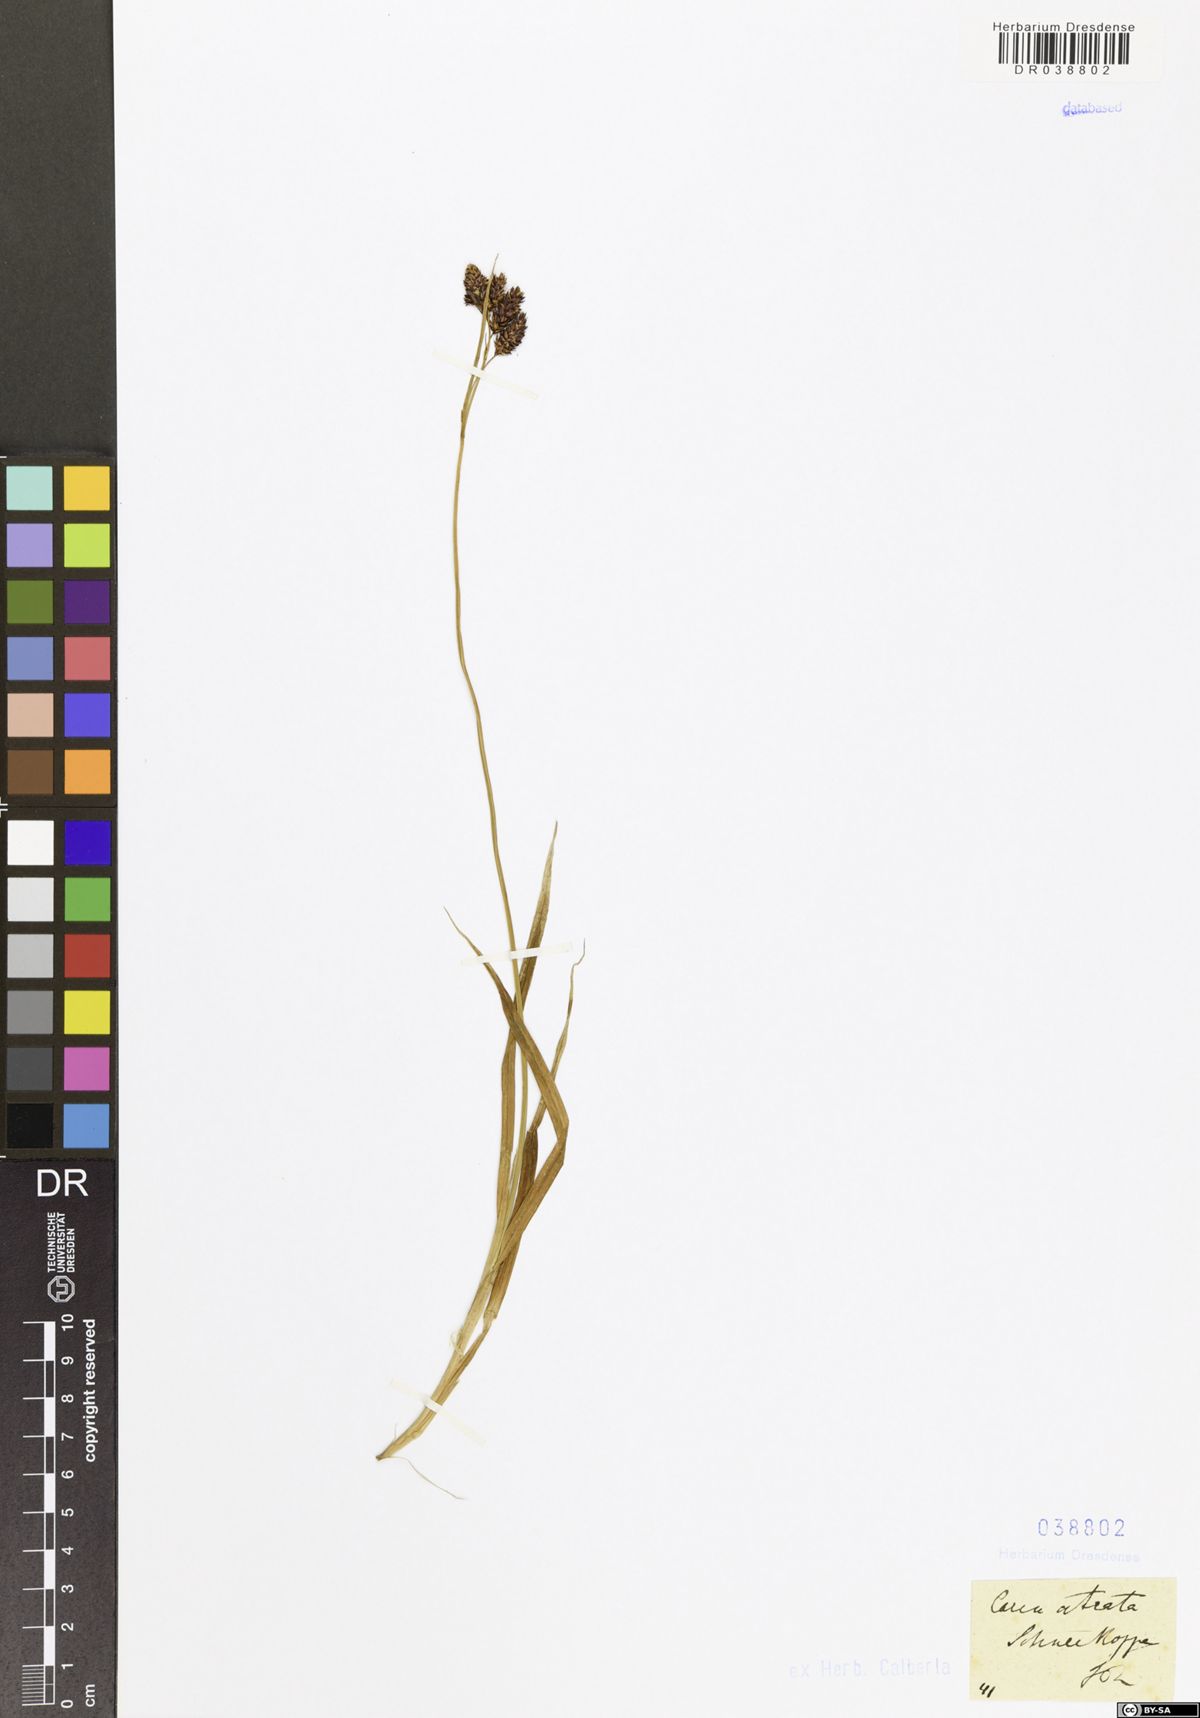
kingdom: Plantae
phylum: Tracheophyta
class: Liliopsida
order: Poales
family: Cyperaceae
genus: Carex
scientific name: Carex atrata
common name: Black alpine sedge
